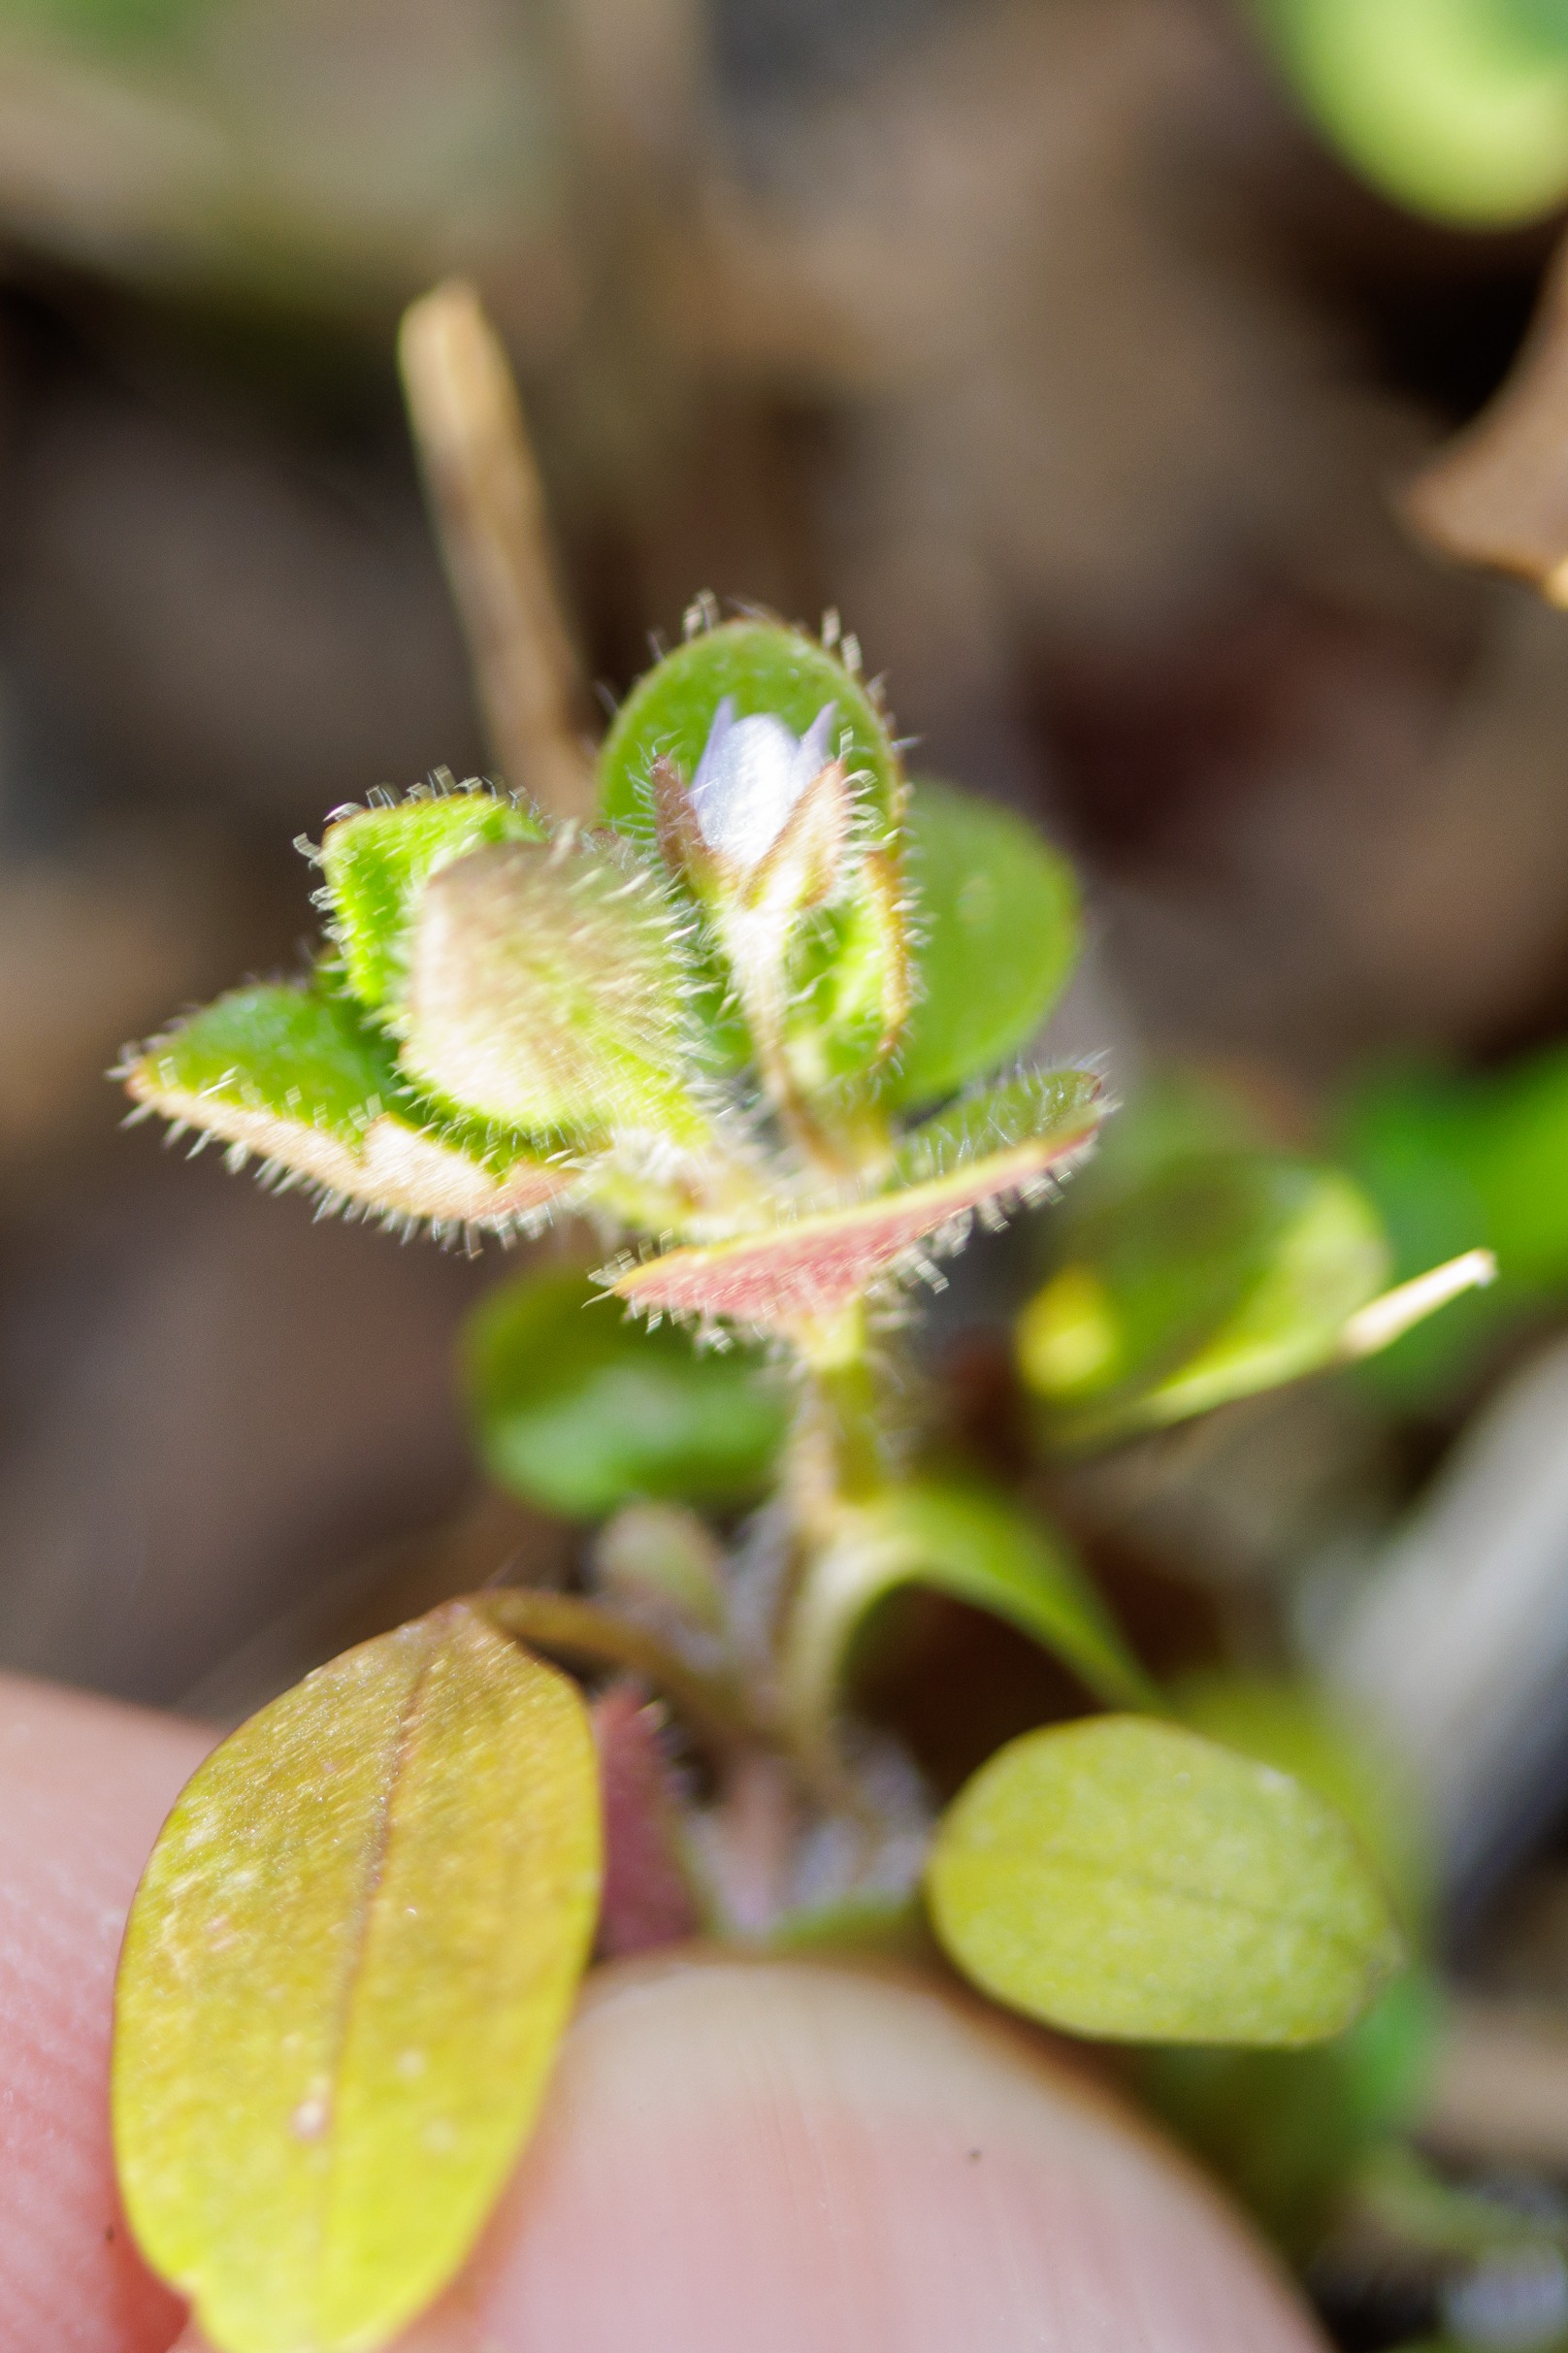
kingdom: Plantae
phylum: Tracheophyta
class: Magnoliopsida
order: Lamiales
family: Plantaginaceae
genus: Veronica
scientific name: Veronica sublobata
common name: Krat-ærenpris
